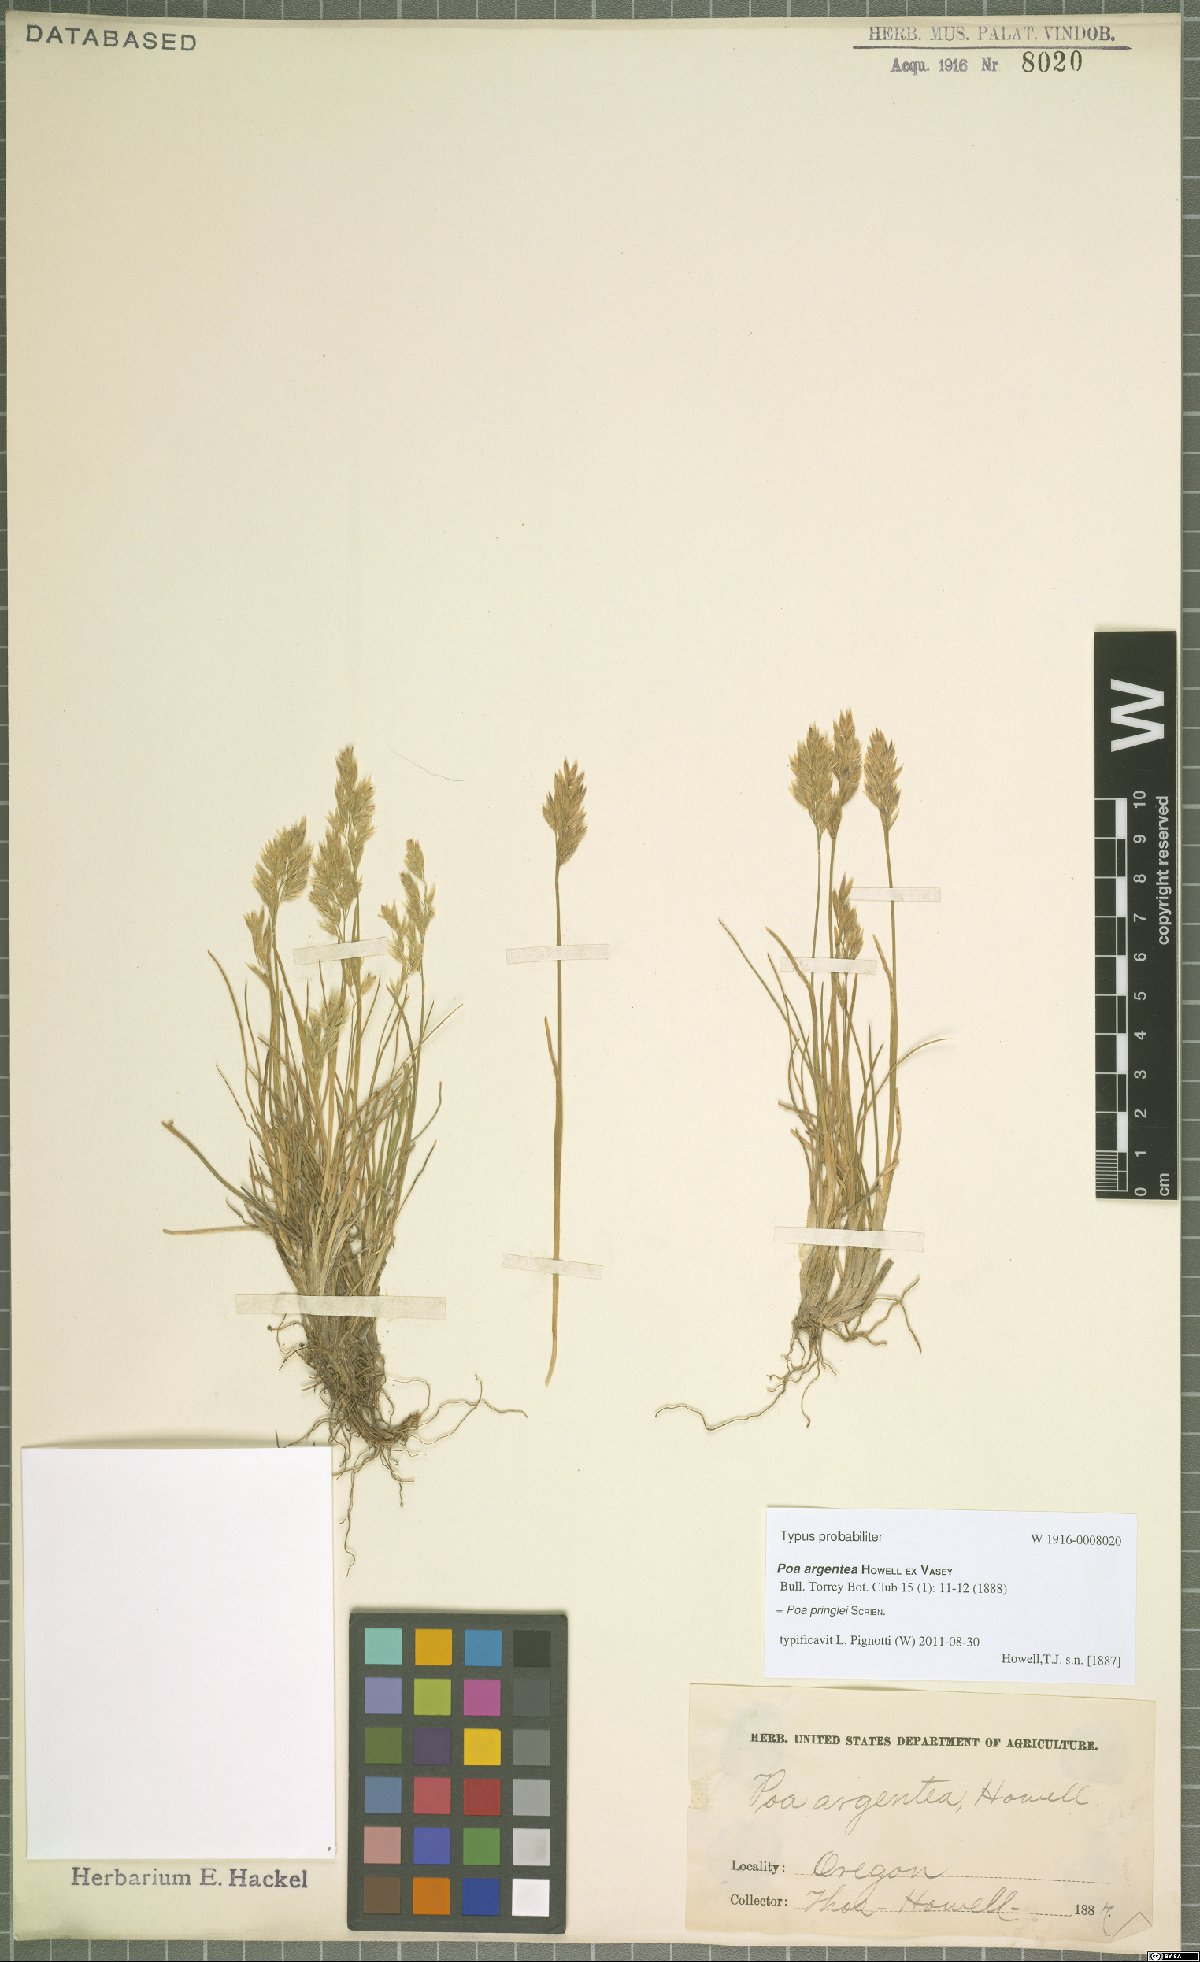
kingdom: Plantae
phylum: Tracheophyta
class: Liliopsida
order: Poales
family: Poaceae
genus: Poa
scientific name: Poa pringlei
